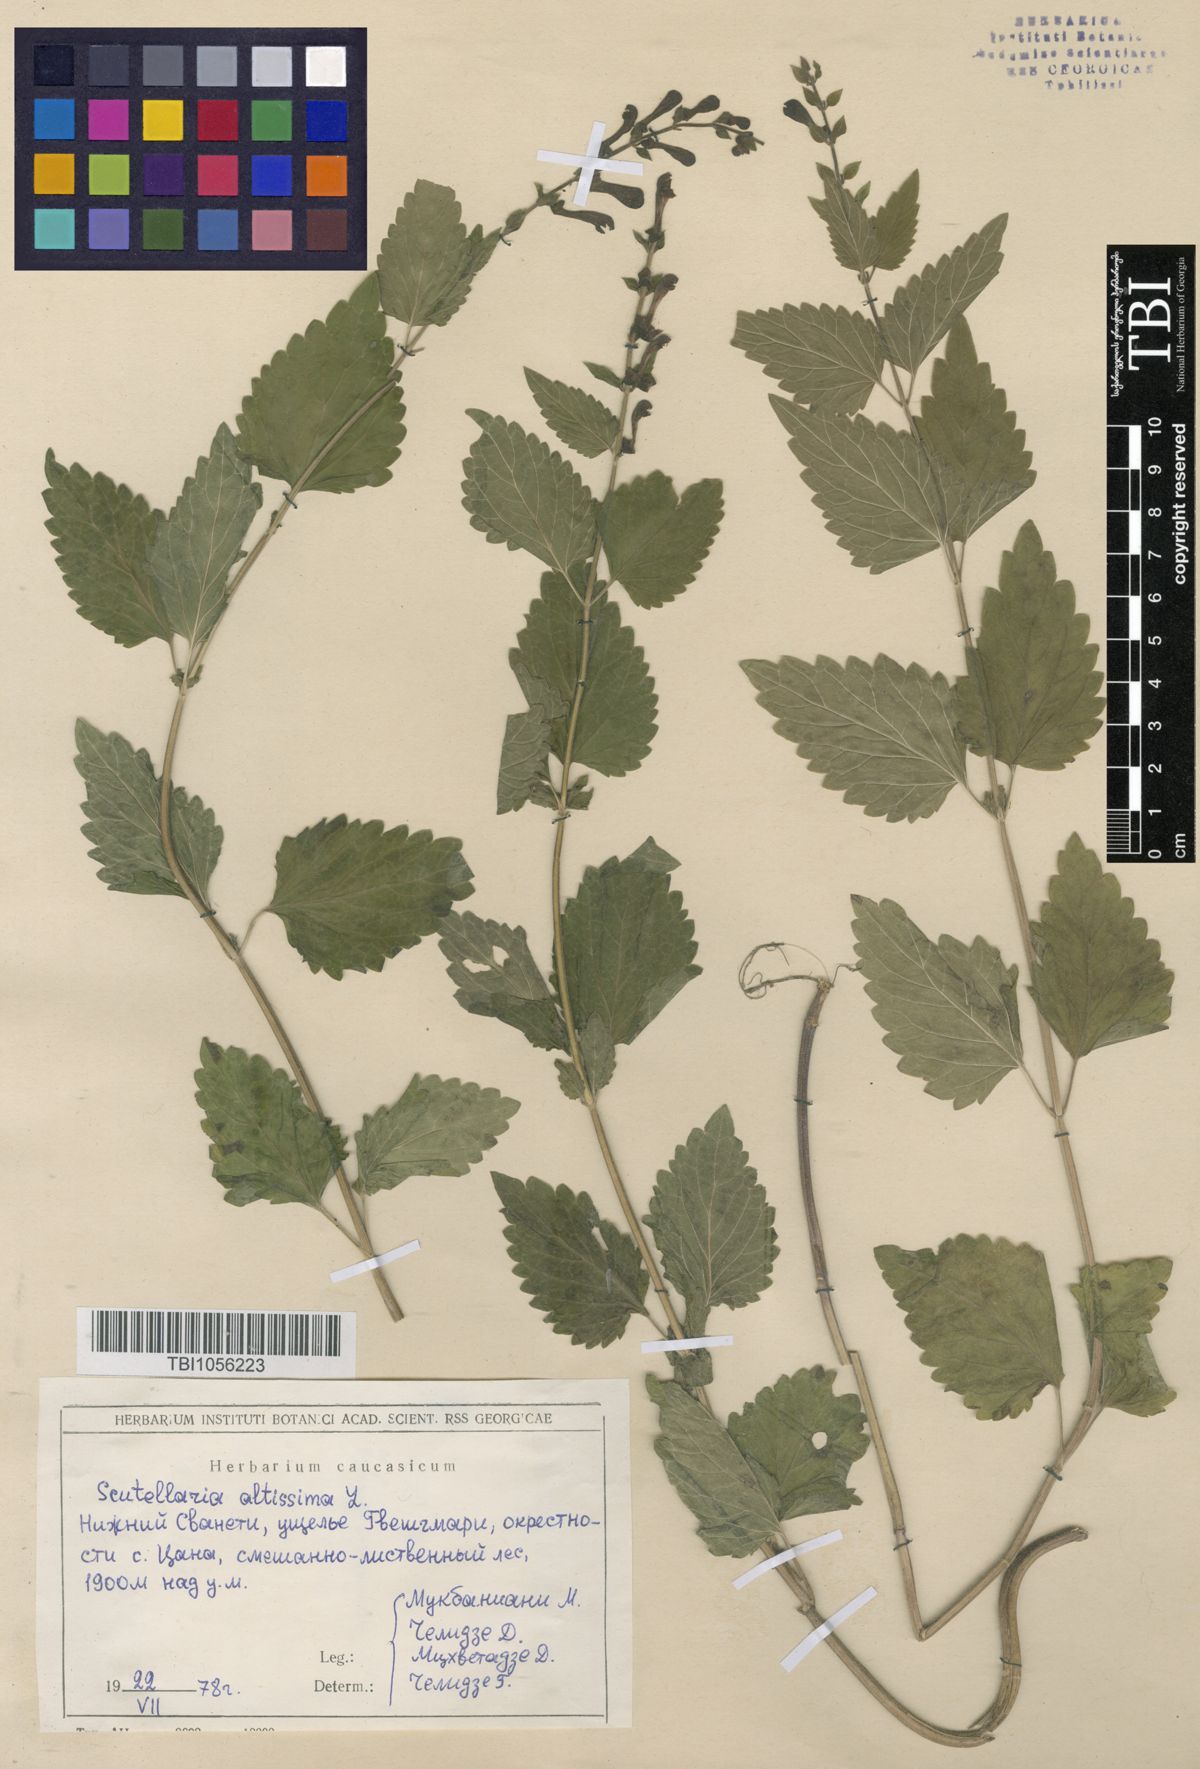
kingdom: Plantae
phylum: Tracheophyta
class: Magnoliopsida
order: Lamiales
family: Lamiaceae
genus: Scutellaria
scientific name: Scutellaria altissima
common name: Somerset skullcap
